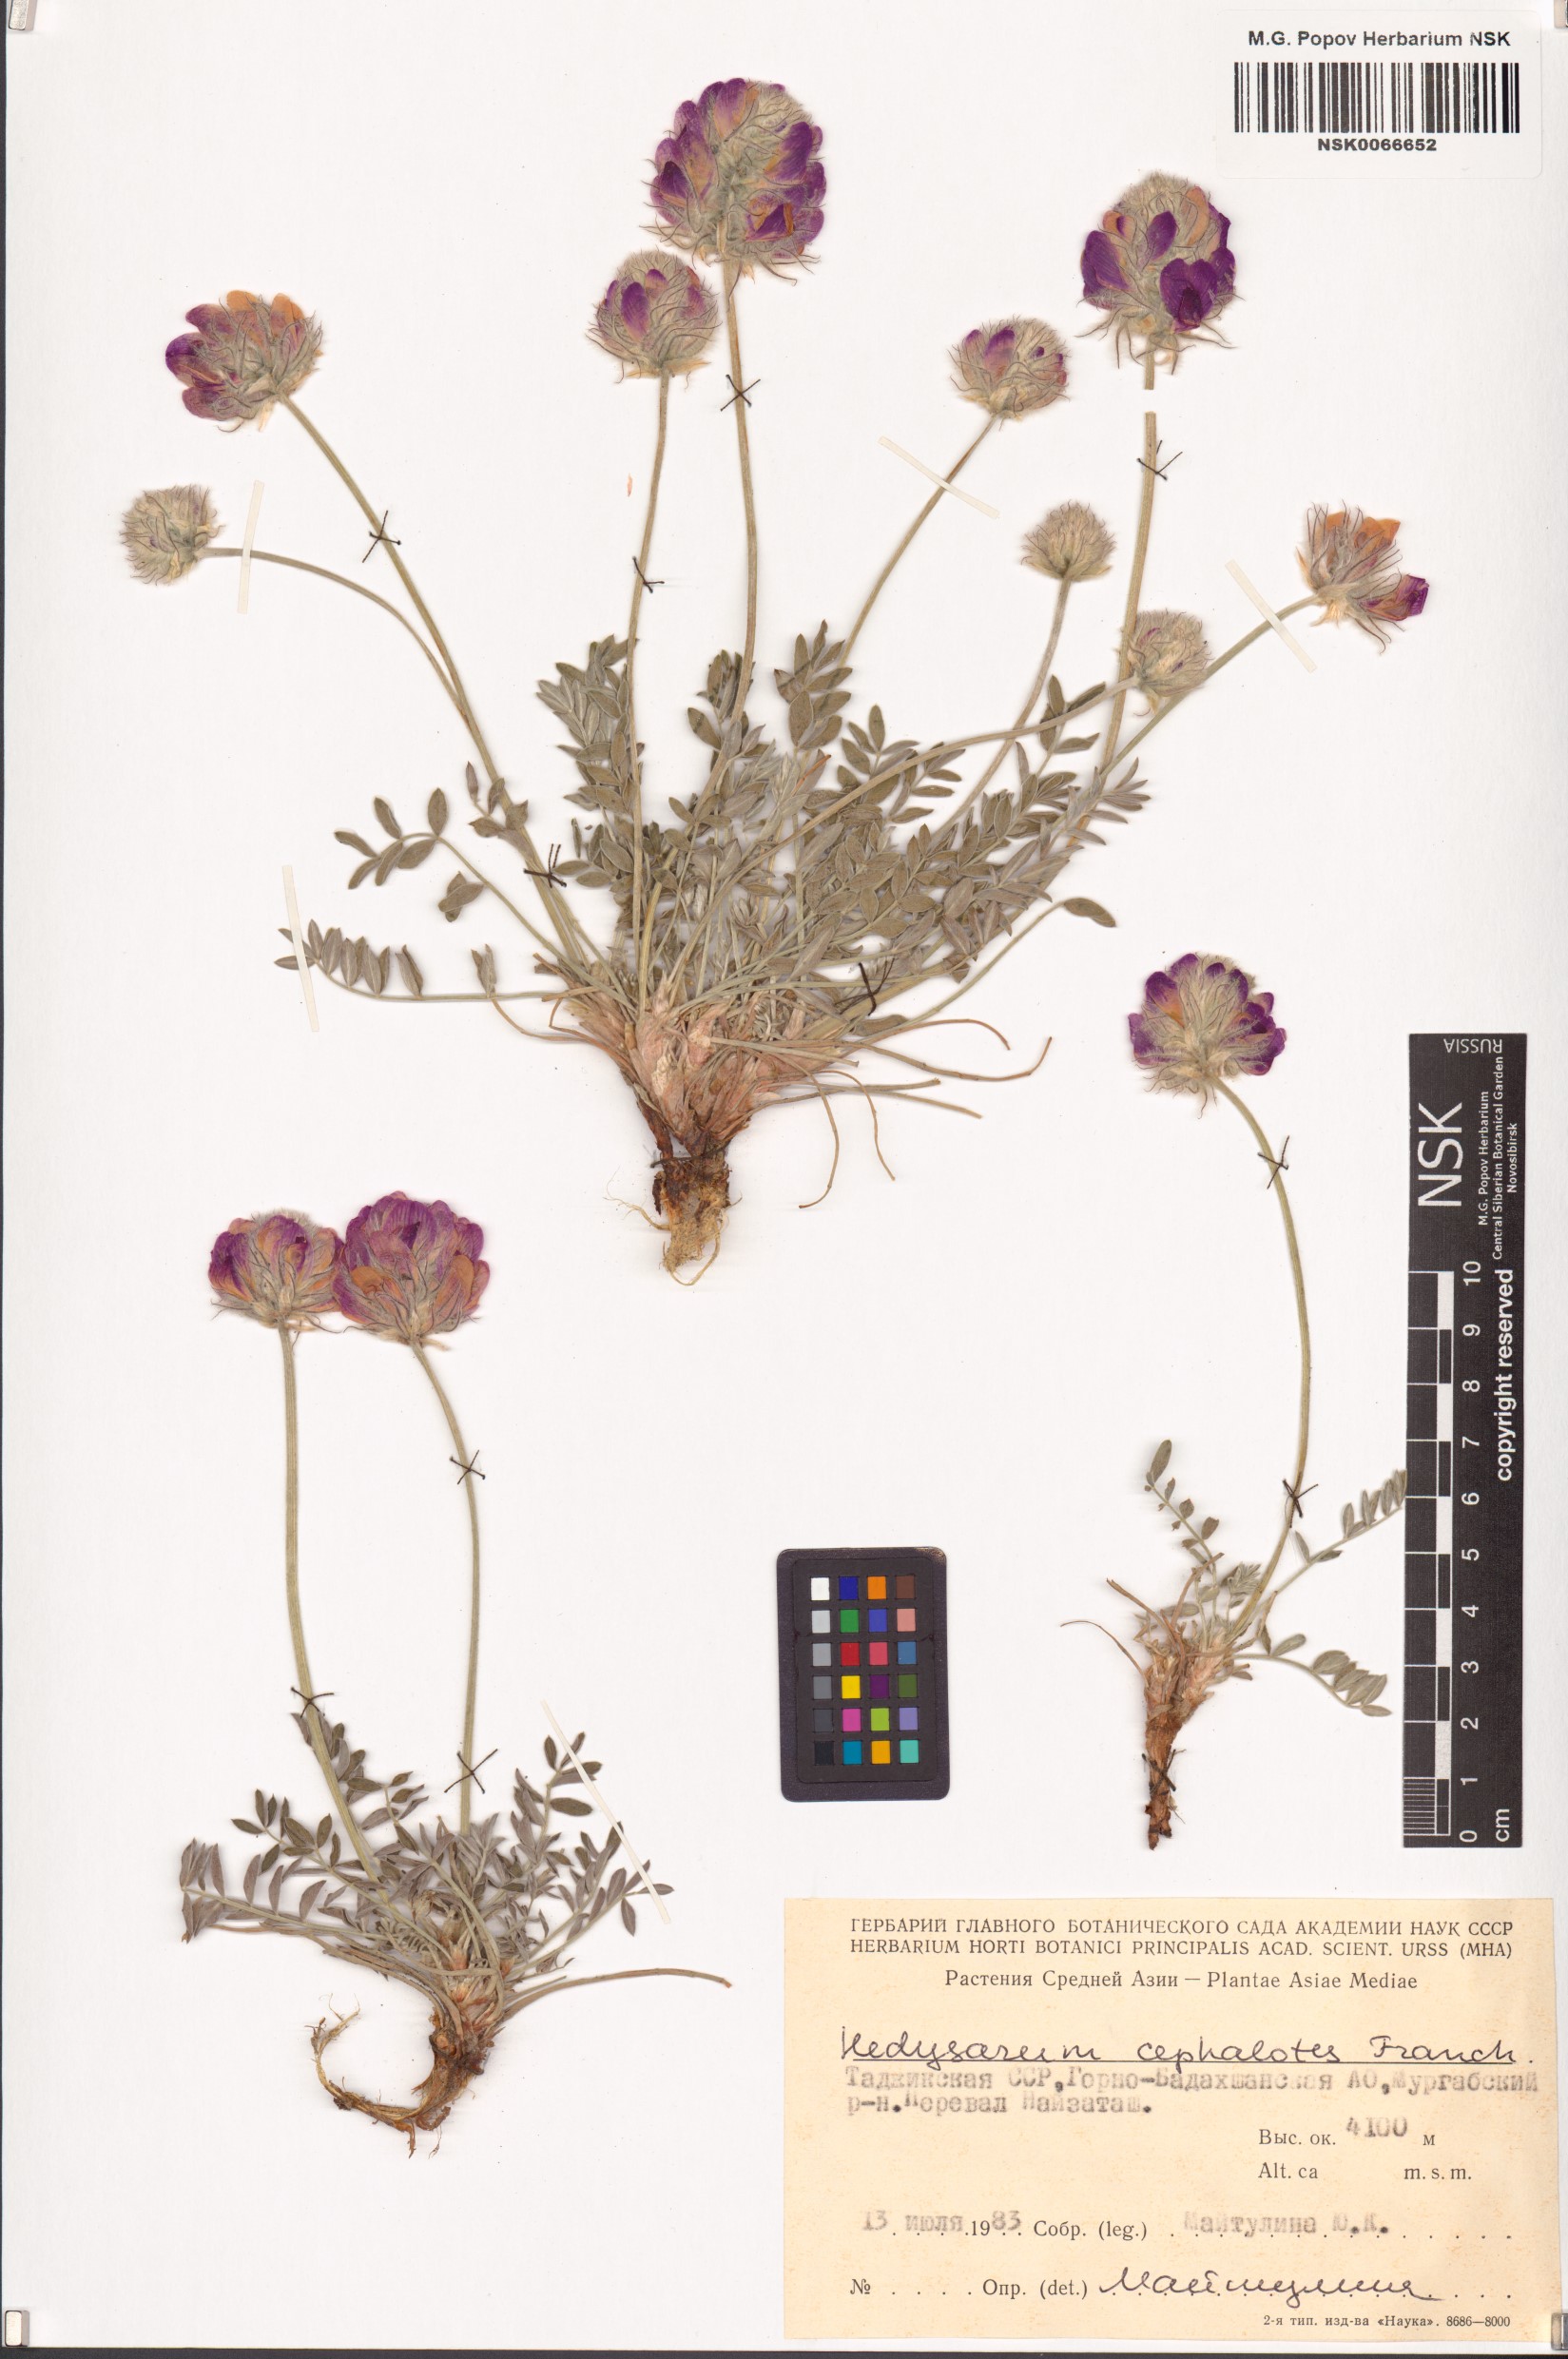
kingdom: Plantae
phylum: Tracheophyta
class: Magnoliopsida
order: Fabales
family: Fabaceae
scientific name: Fabaceae
